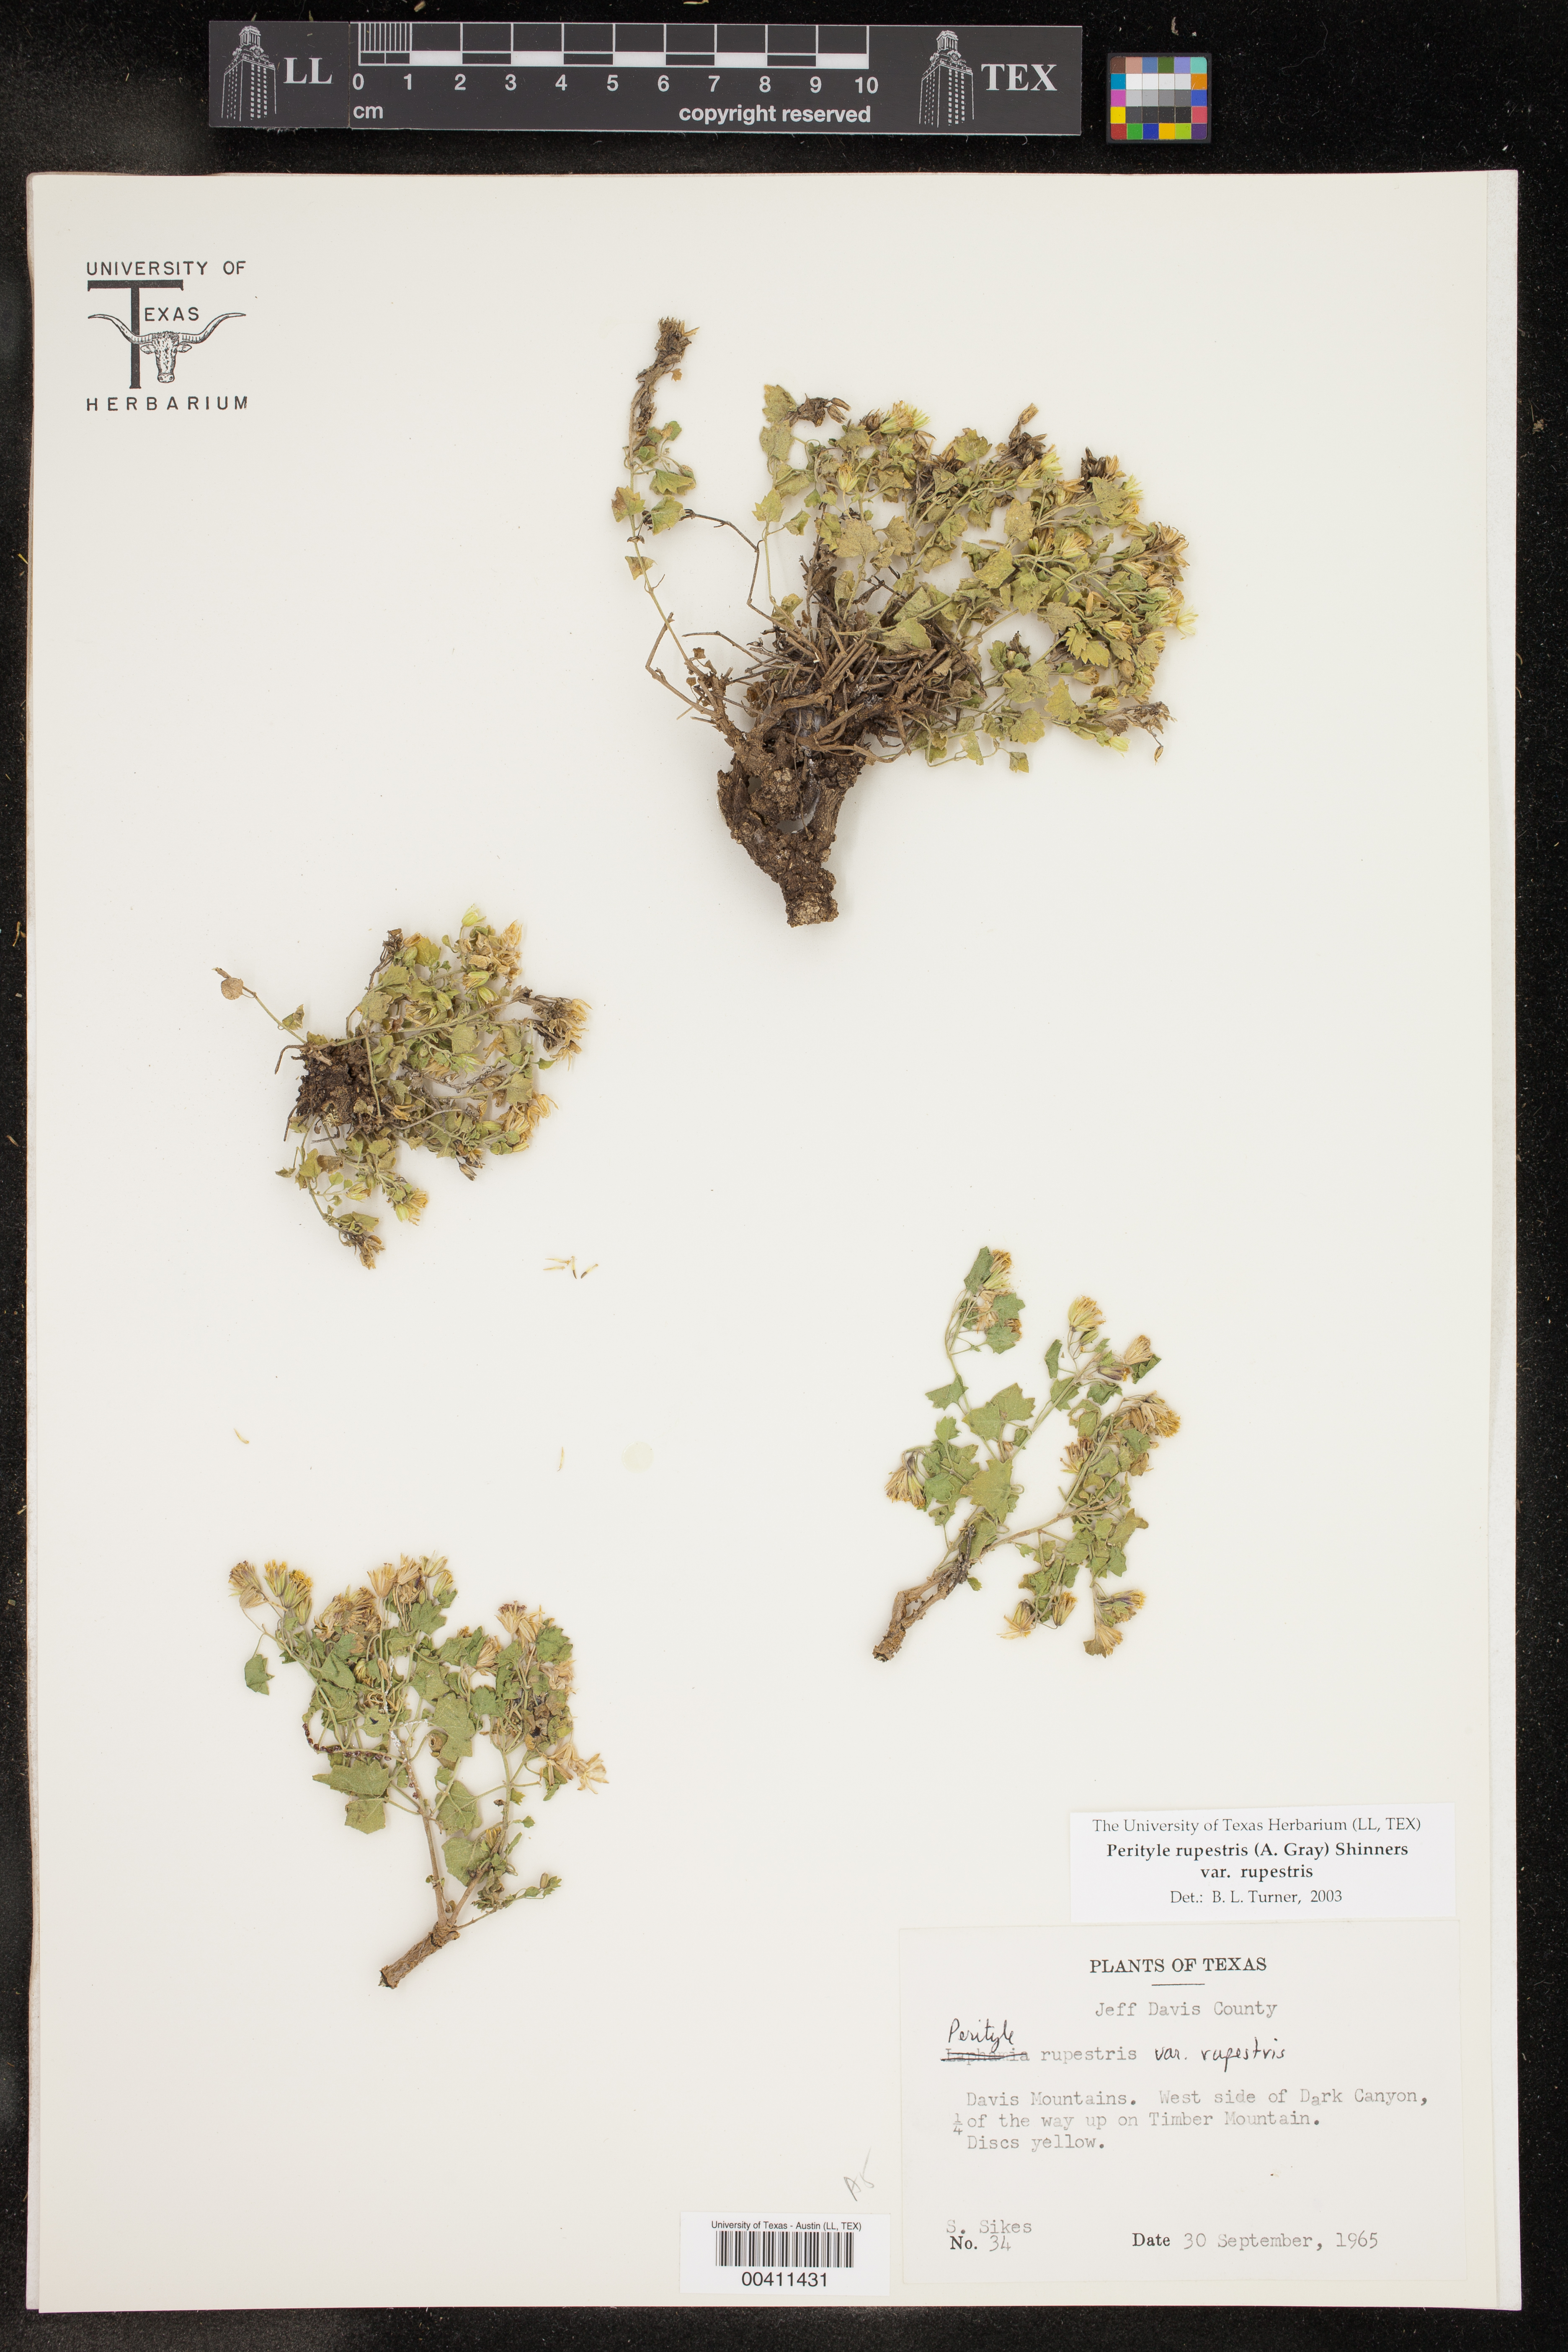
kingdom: Plantae
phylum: Tracheophyta
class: Magnoliopsida
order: Asterales
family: Asteraceae
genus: Laphamia
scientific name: Laphamia rupestris
